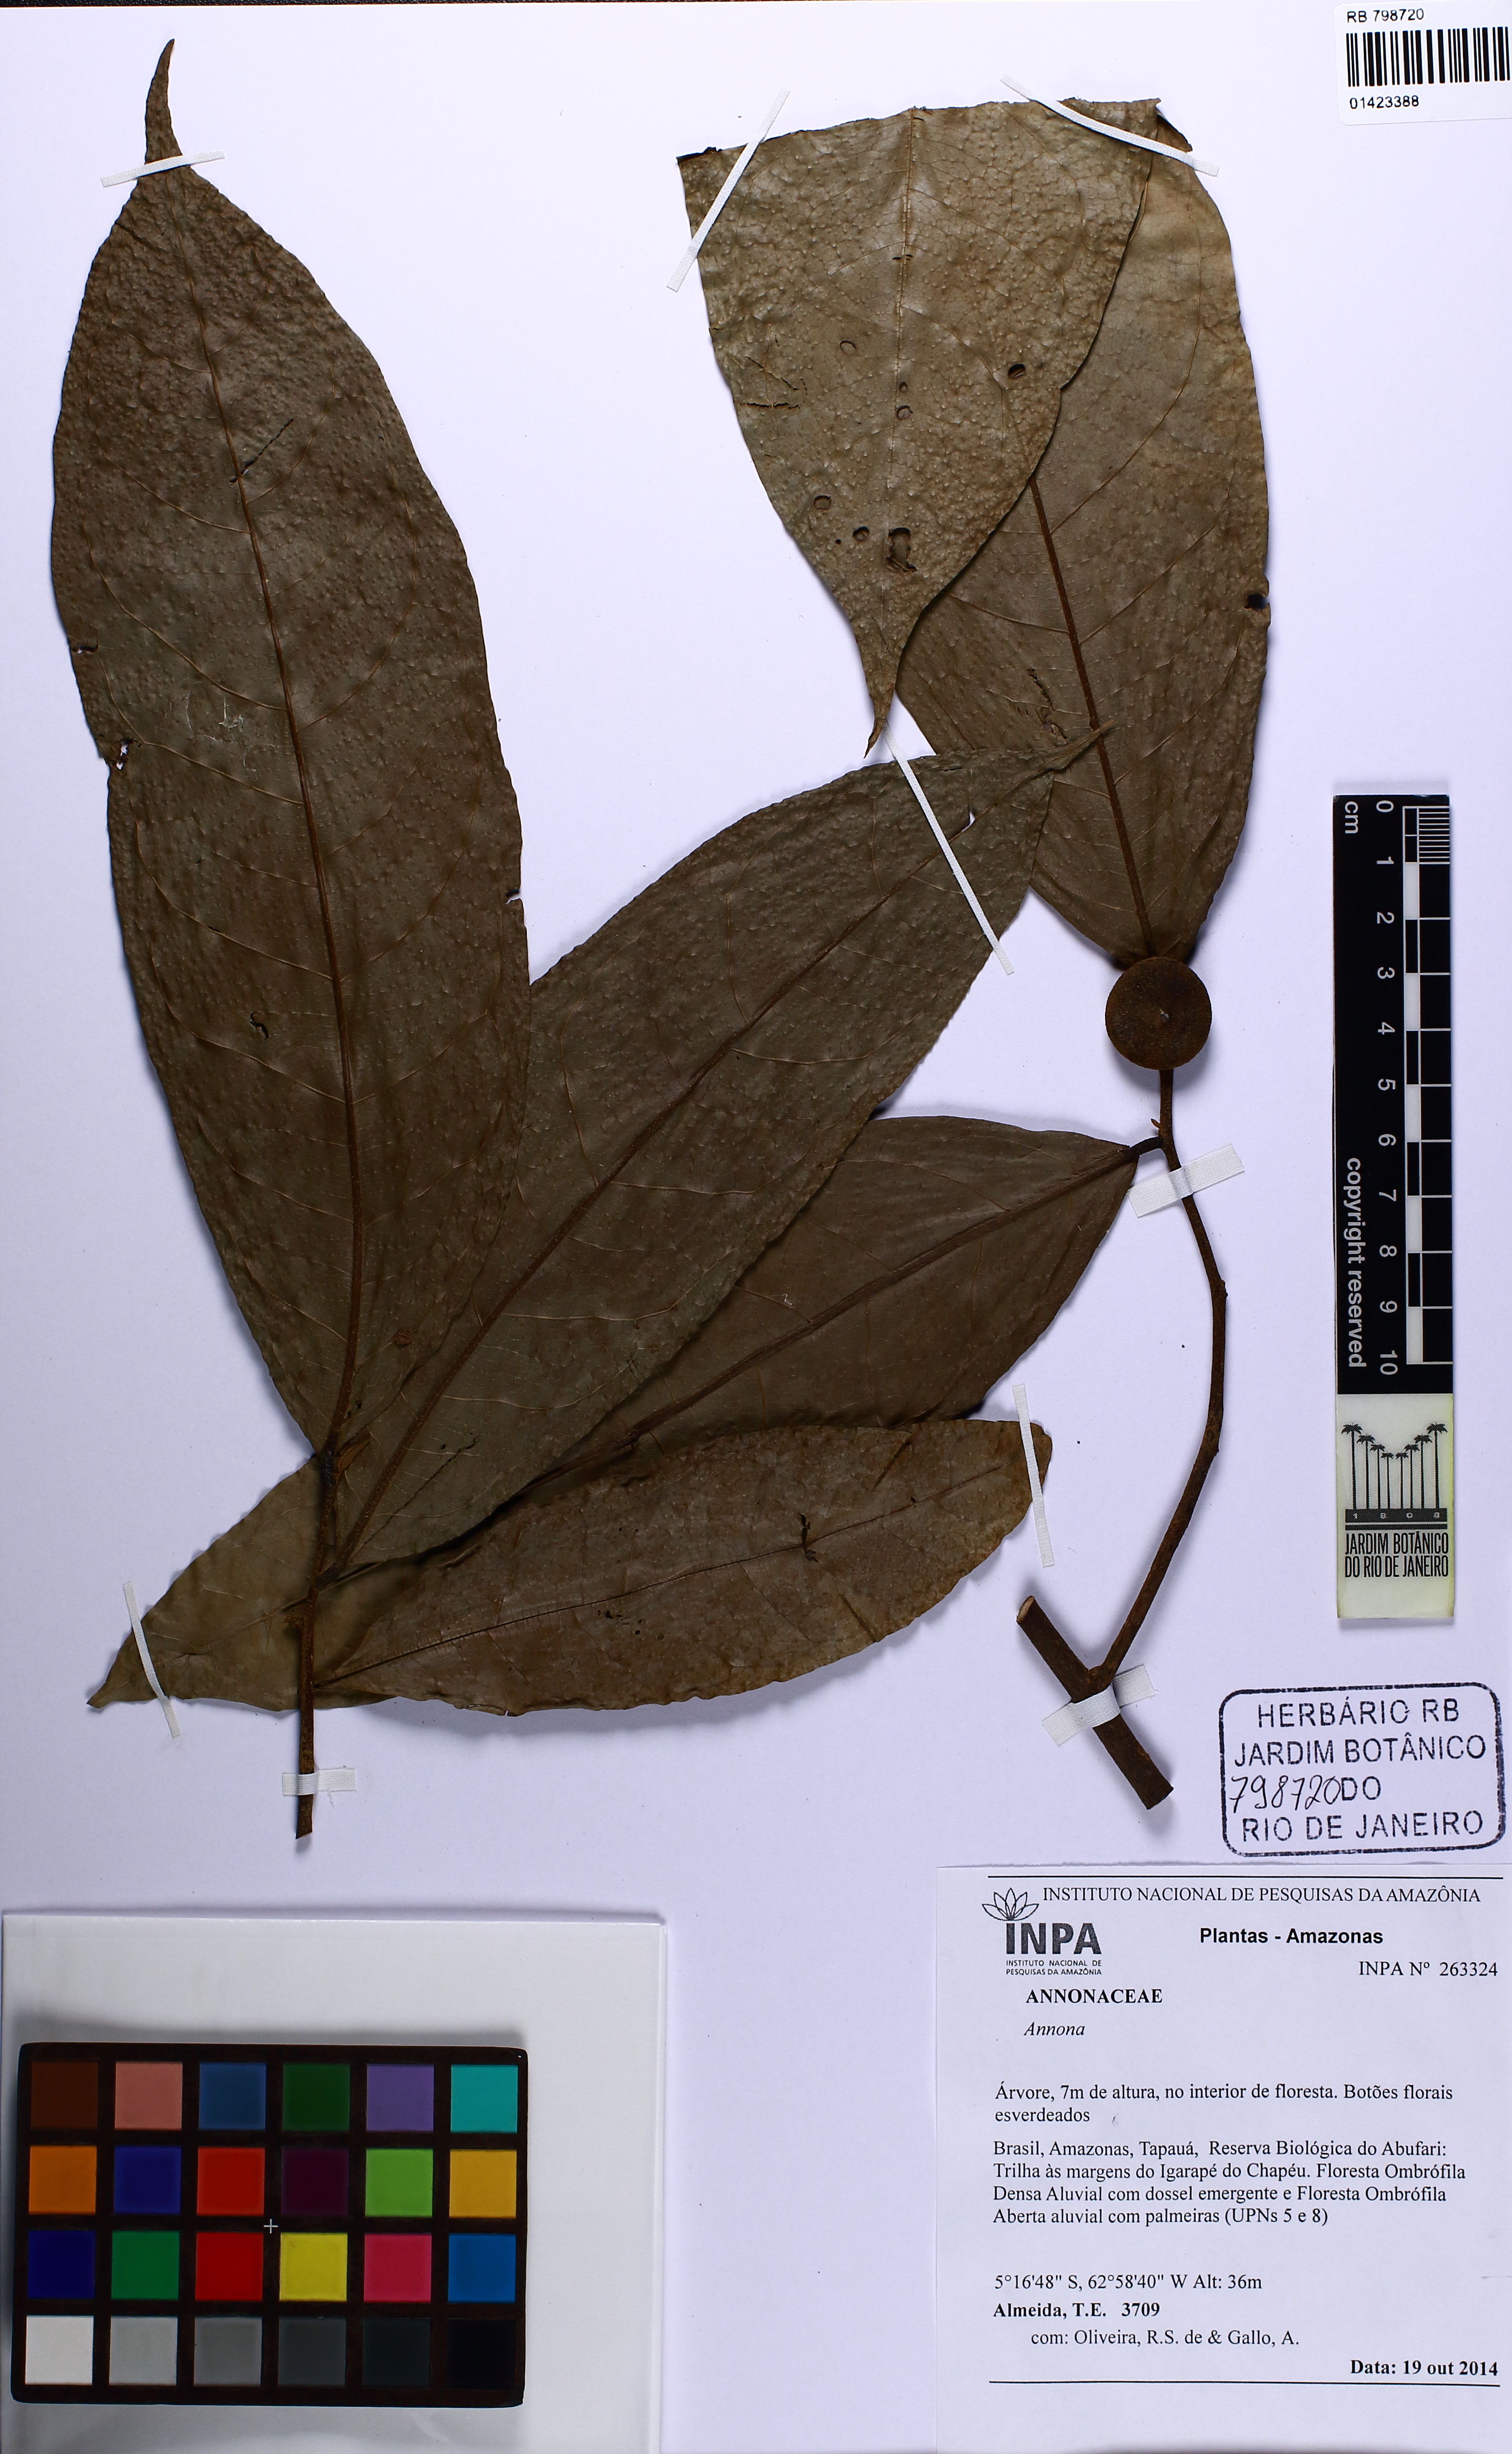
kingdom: Plantae
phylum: Tracheophyta
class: Magnoliopsida
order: Magnoliales
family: Annonaceae
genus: Annona
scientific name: Annona
